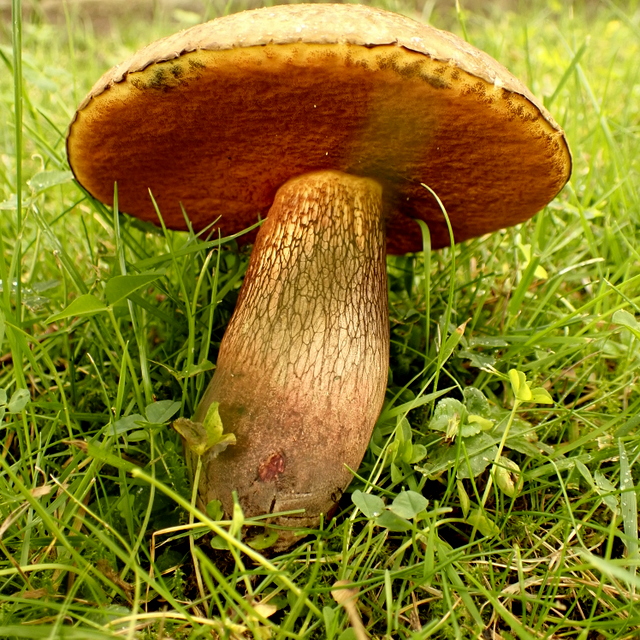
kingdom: Fungi
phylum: Basidiomycota
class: Agaricomycetes
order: Boletales
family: Boletaceae
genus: Suillellus
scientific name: Suillellus luridus
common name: netstokket indigorørhat
